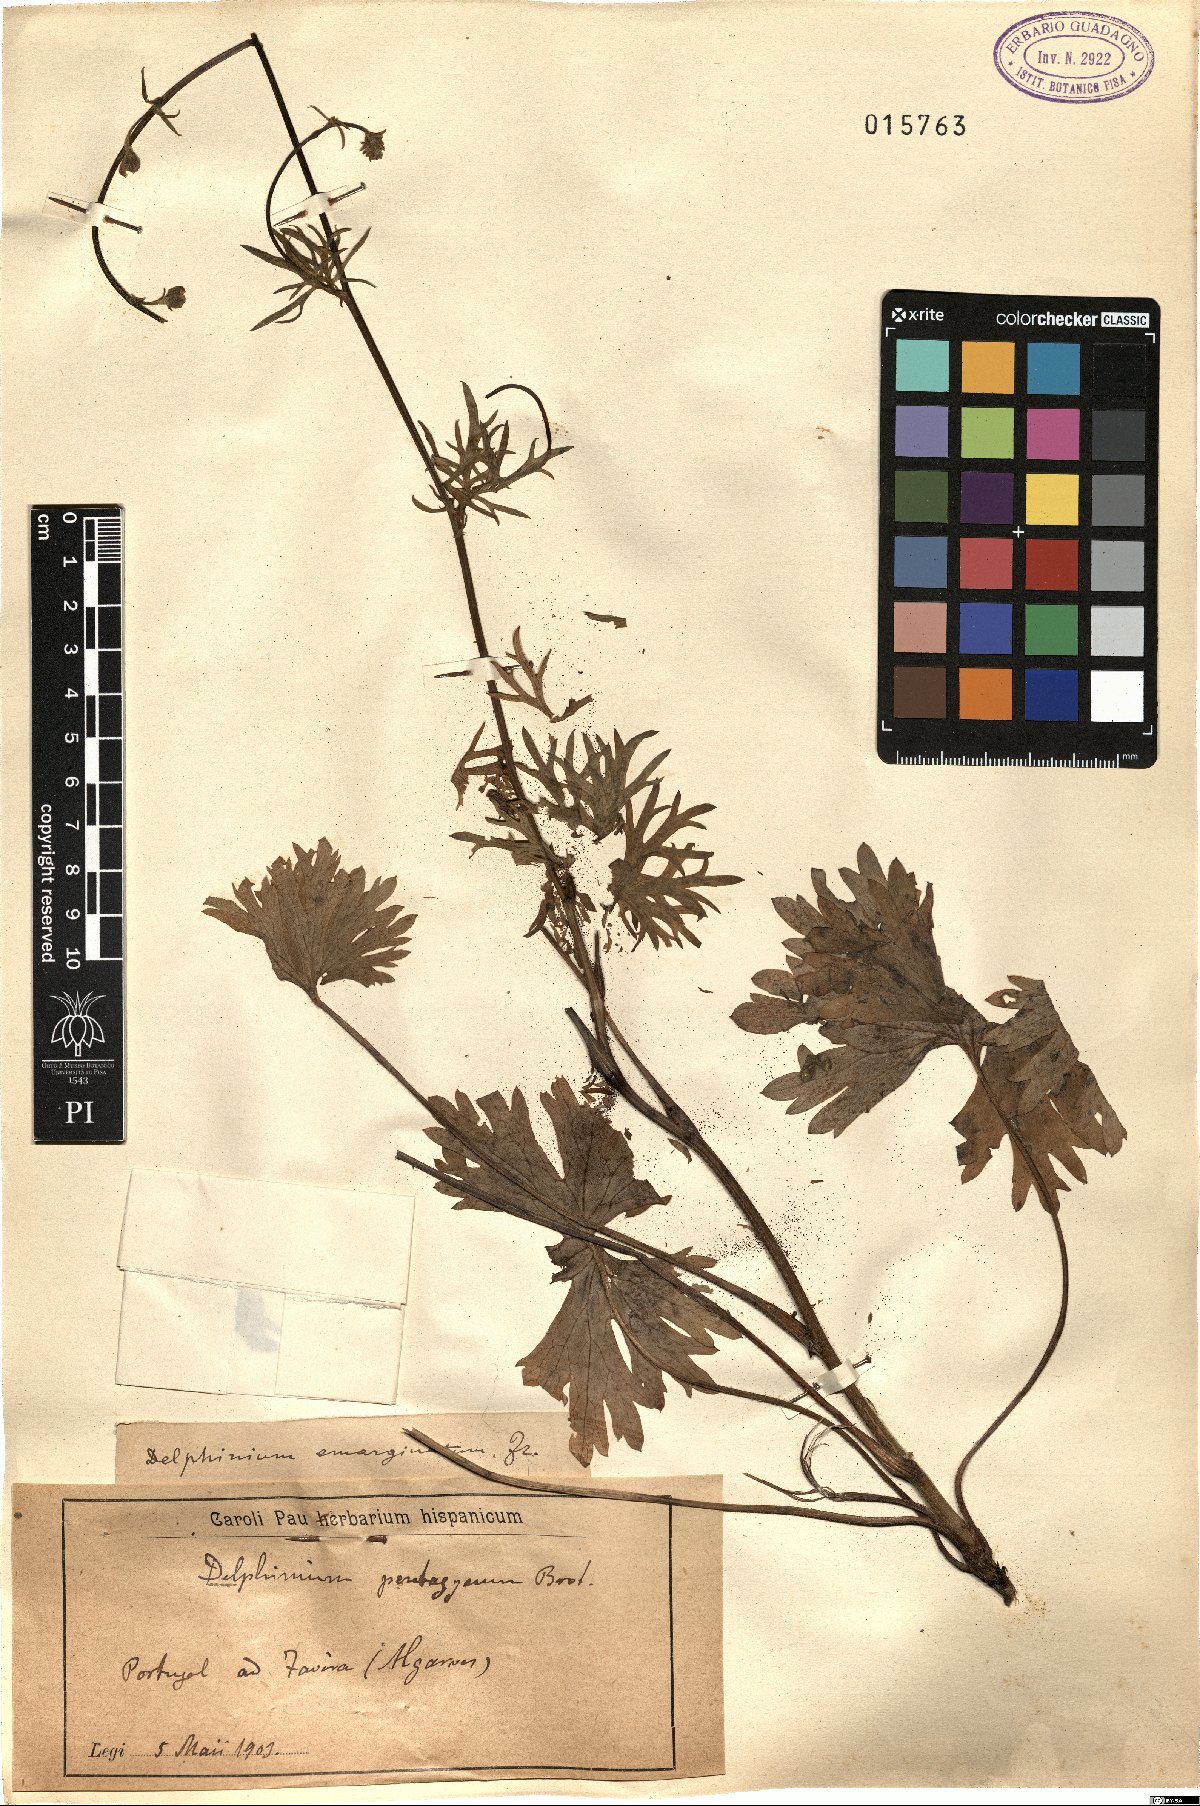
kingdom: Plantae
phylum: Tracheophyta
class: Magnoliopsida
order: Ranunculales
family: Ranunculaceae
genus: Delphinium
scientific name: Delphinium emarginatum
